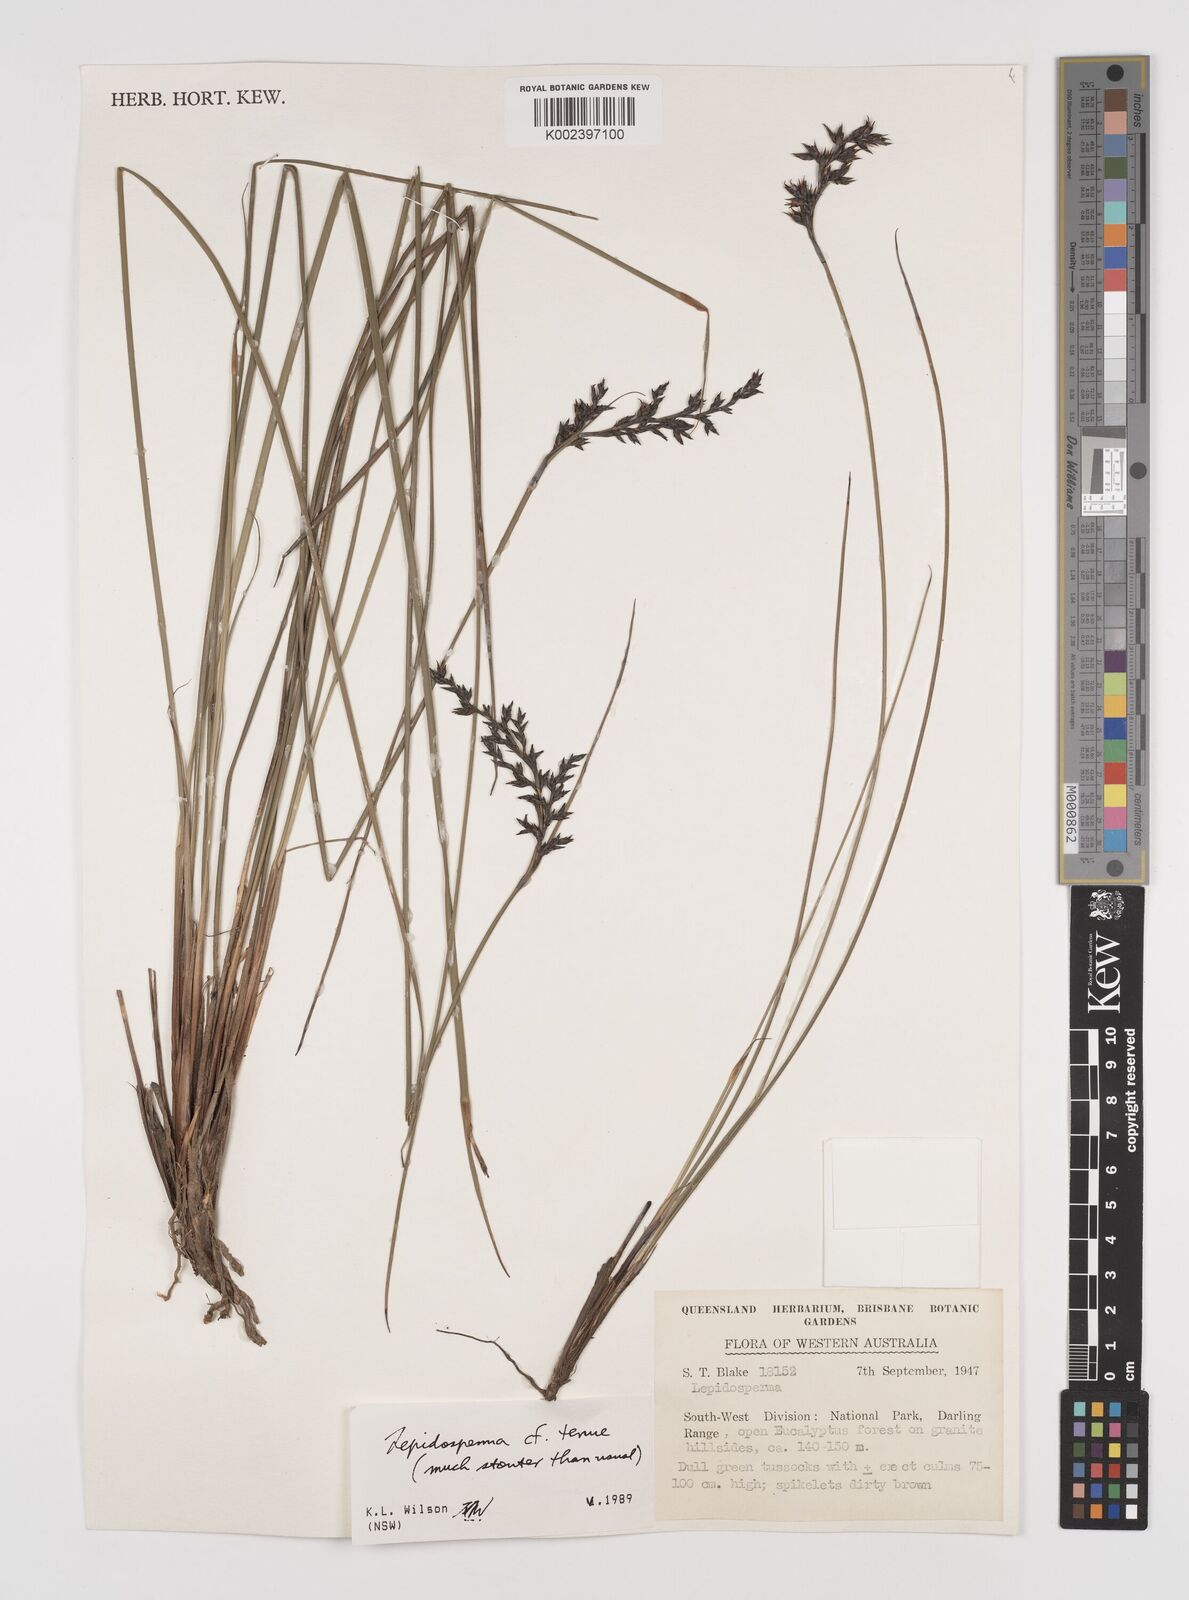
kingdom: Plantae
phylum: Tracheophyta
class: Liliopsida
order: Poales
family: Cyperaceae
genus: Lepidosperma
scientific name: Lepidosperma tenue
